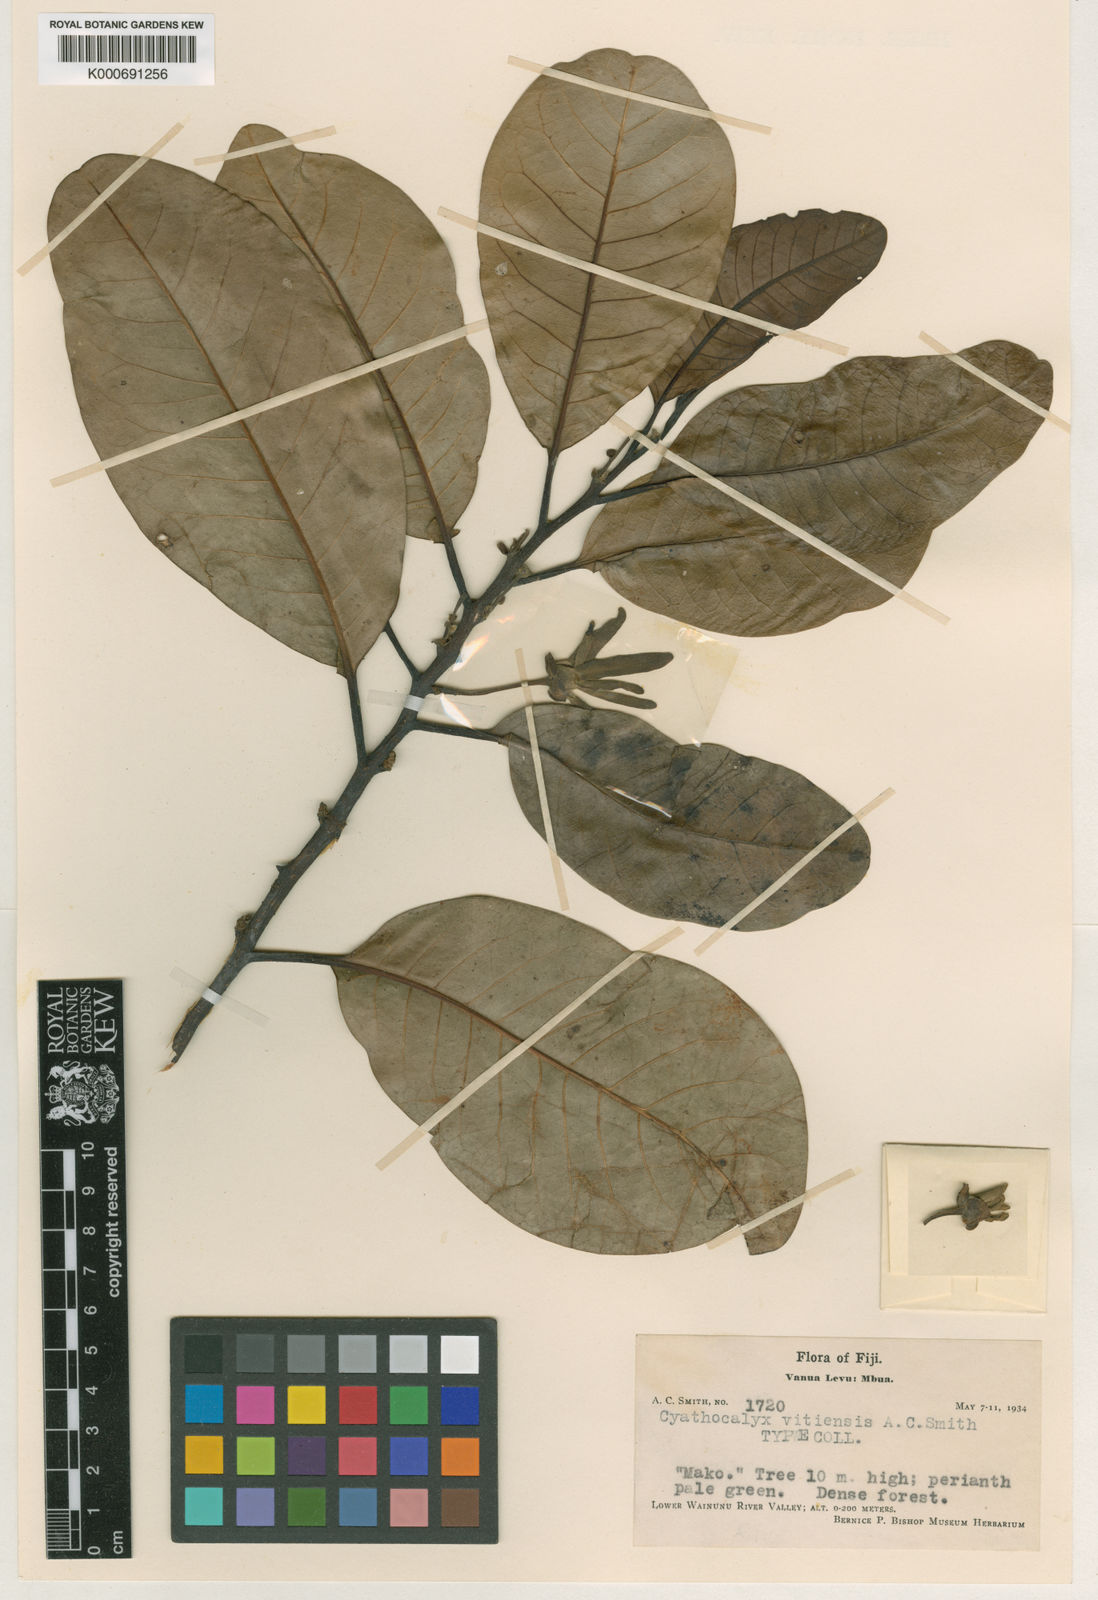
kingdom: Plantae
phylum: Tracheophyta
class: Magnoliopsida
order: Magnoliales
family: Annonaceae
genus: Drepananthus
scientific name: Drepananthus vitiensis
